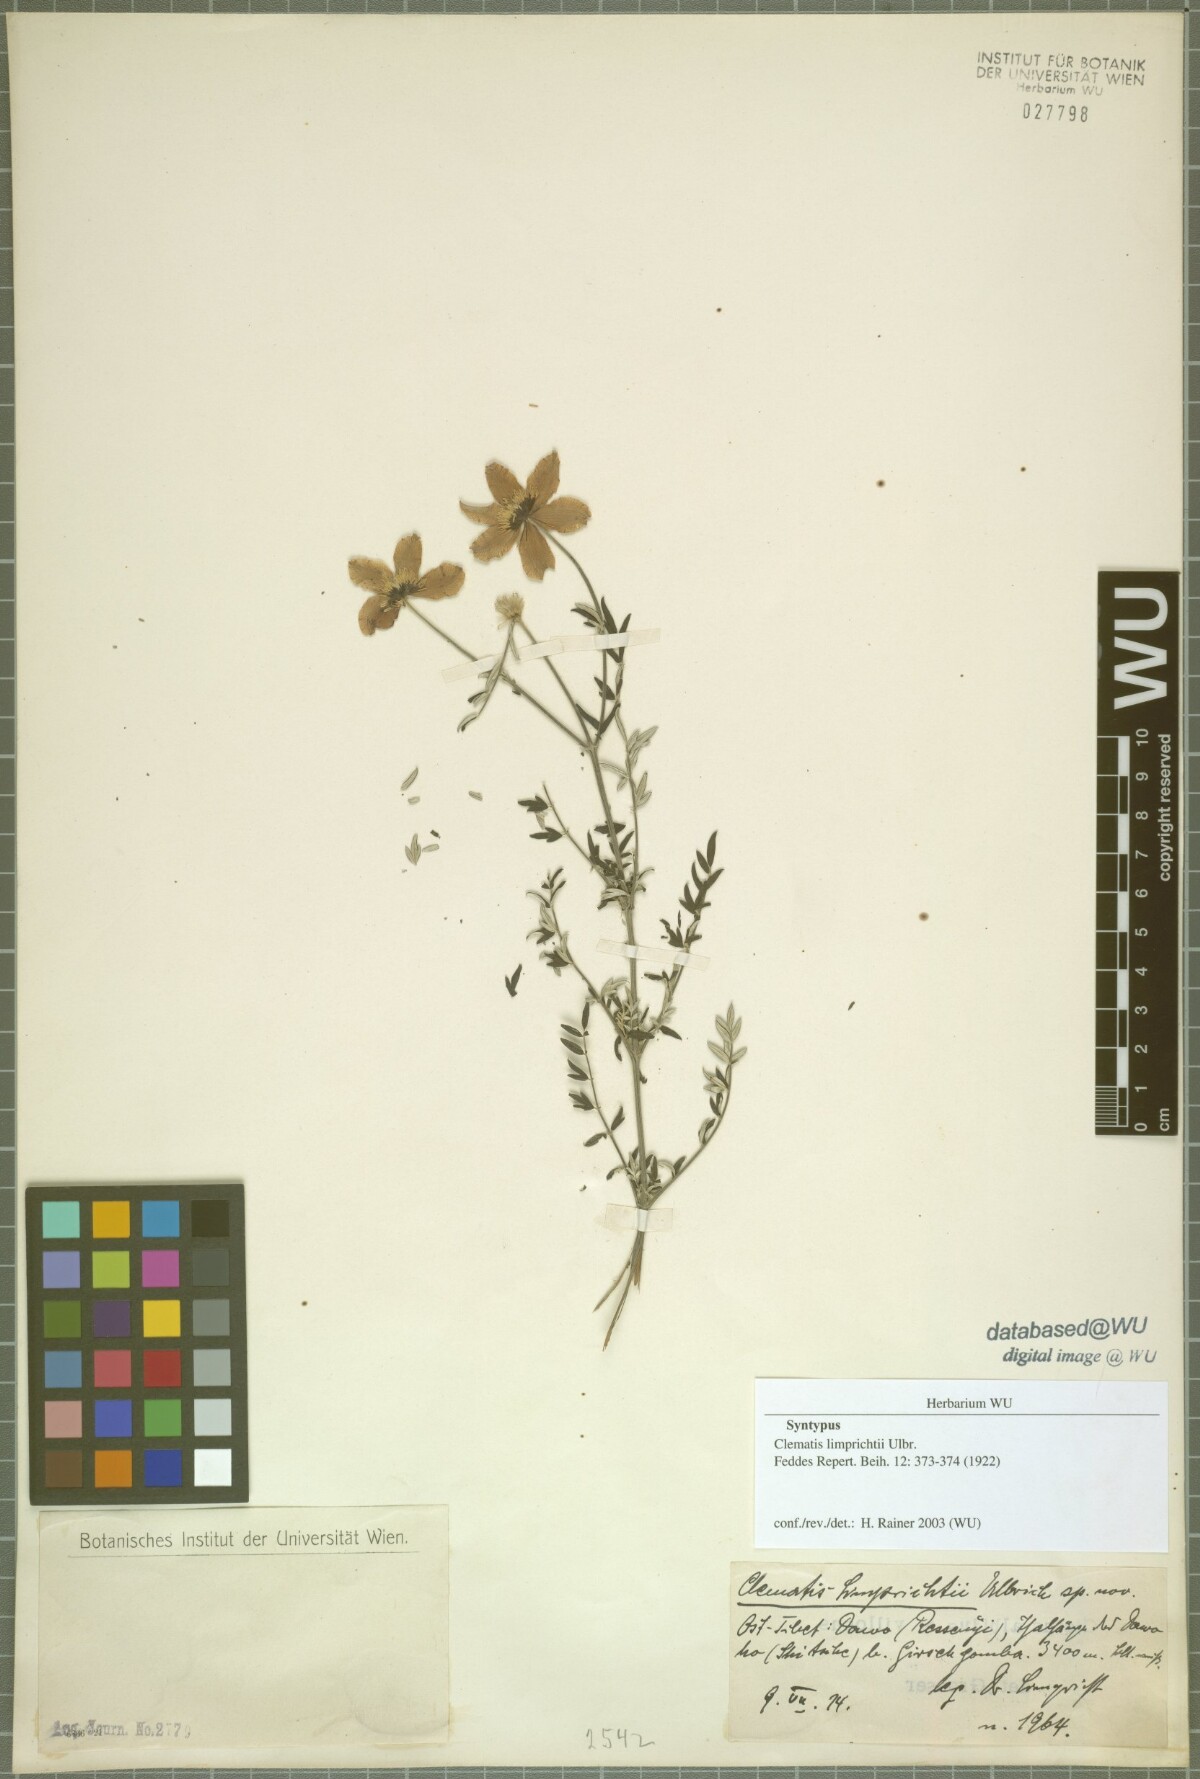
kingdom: Plantae
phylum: Tracheophyta
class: Magnoliopsida
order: Ranunculales
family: Ranunculaceae
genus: Clematis
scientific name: Clematis delavayi
